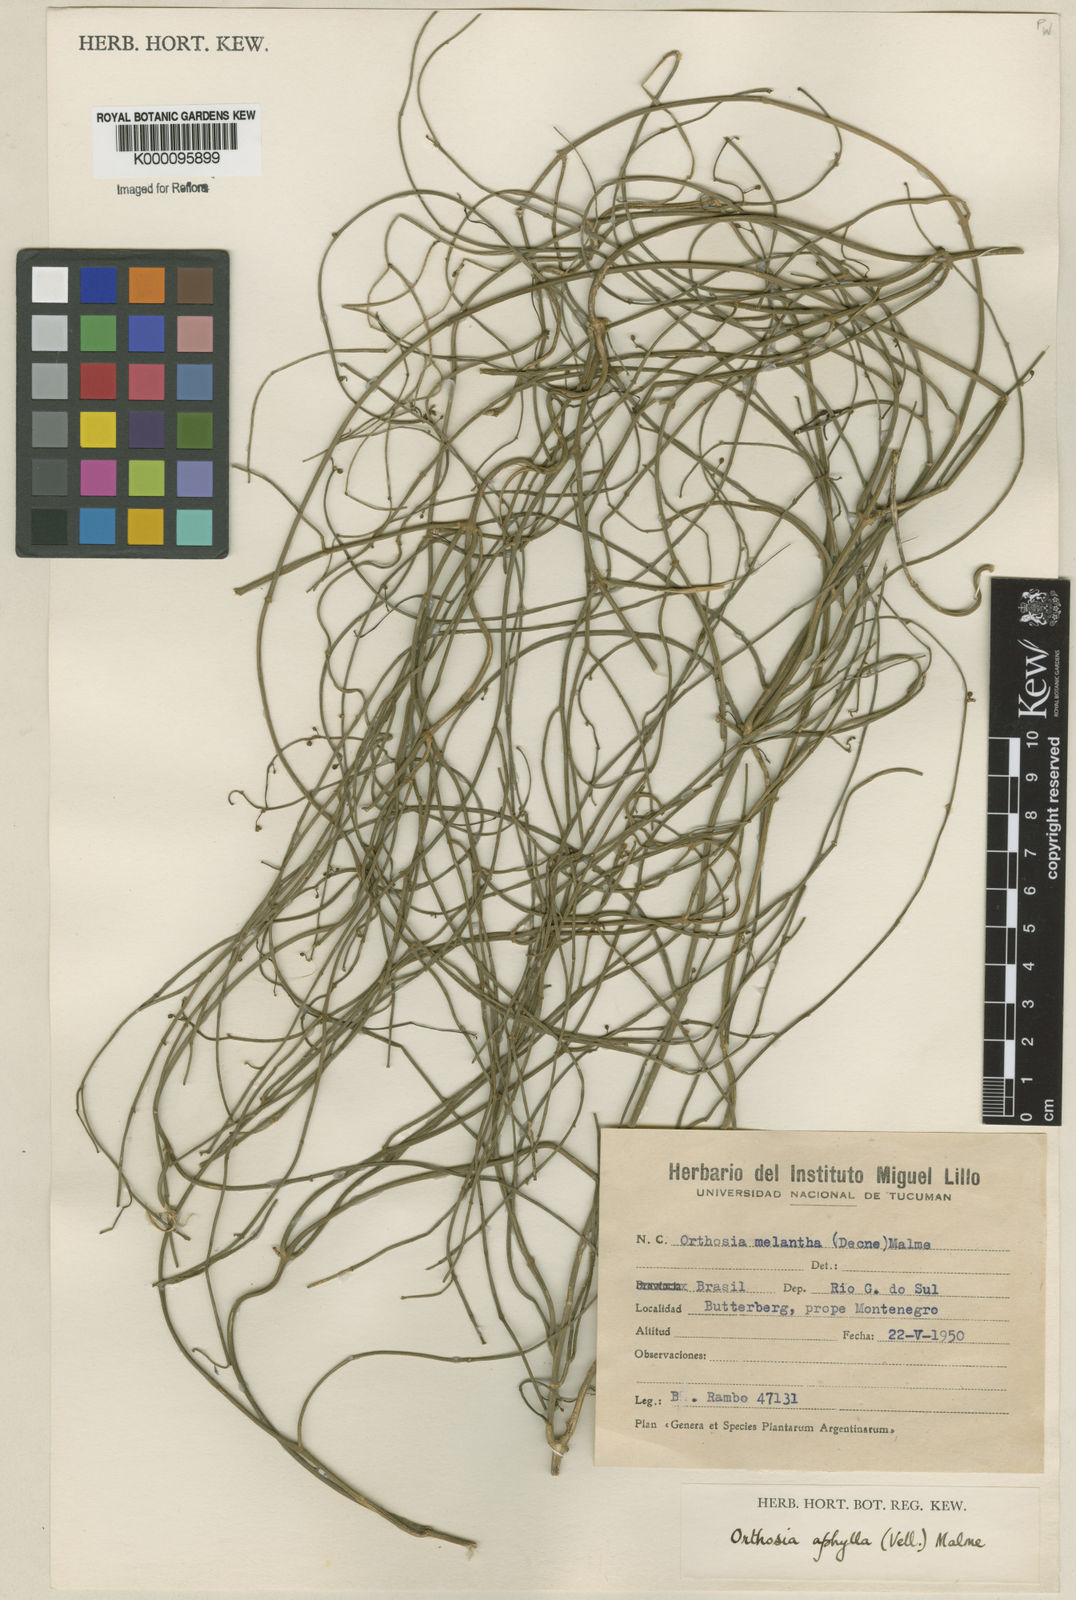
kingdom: Plantae
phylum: Tracheophyta
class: Magnoliopsida
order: Gentianales
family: Apocynaceae
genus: Orthosia
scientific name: Orthosia scoparia
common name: Leafless swallow-wort
